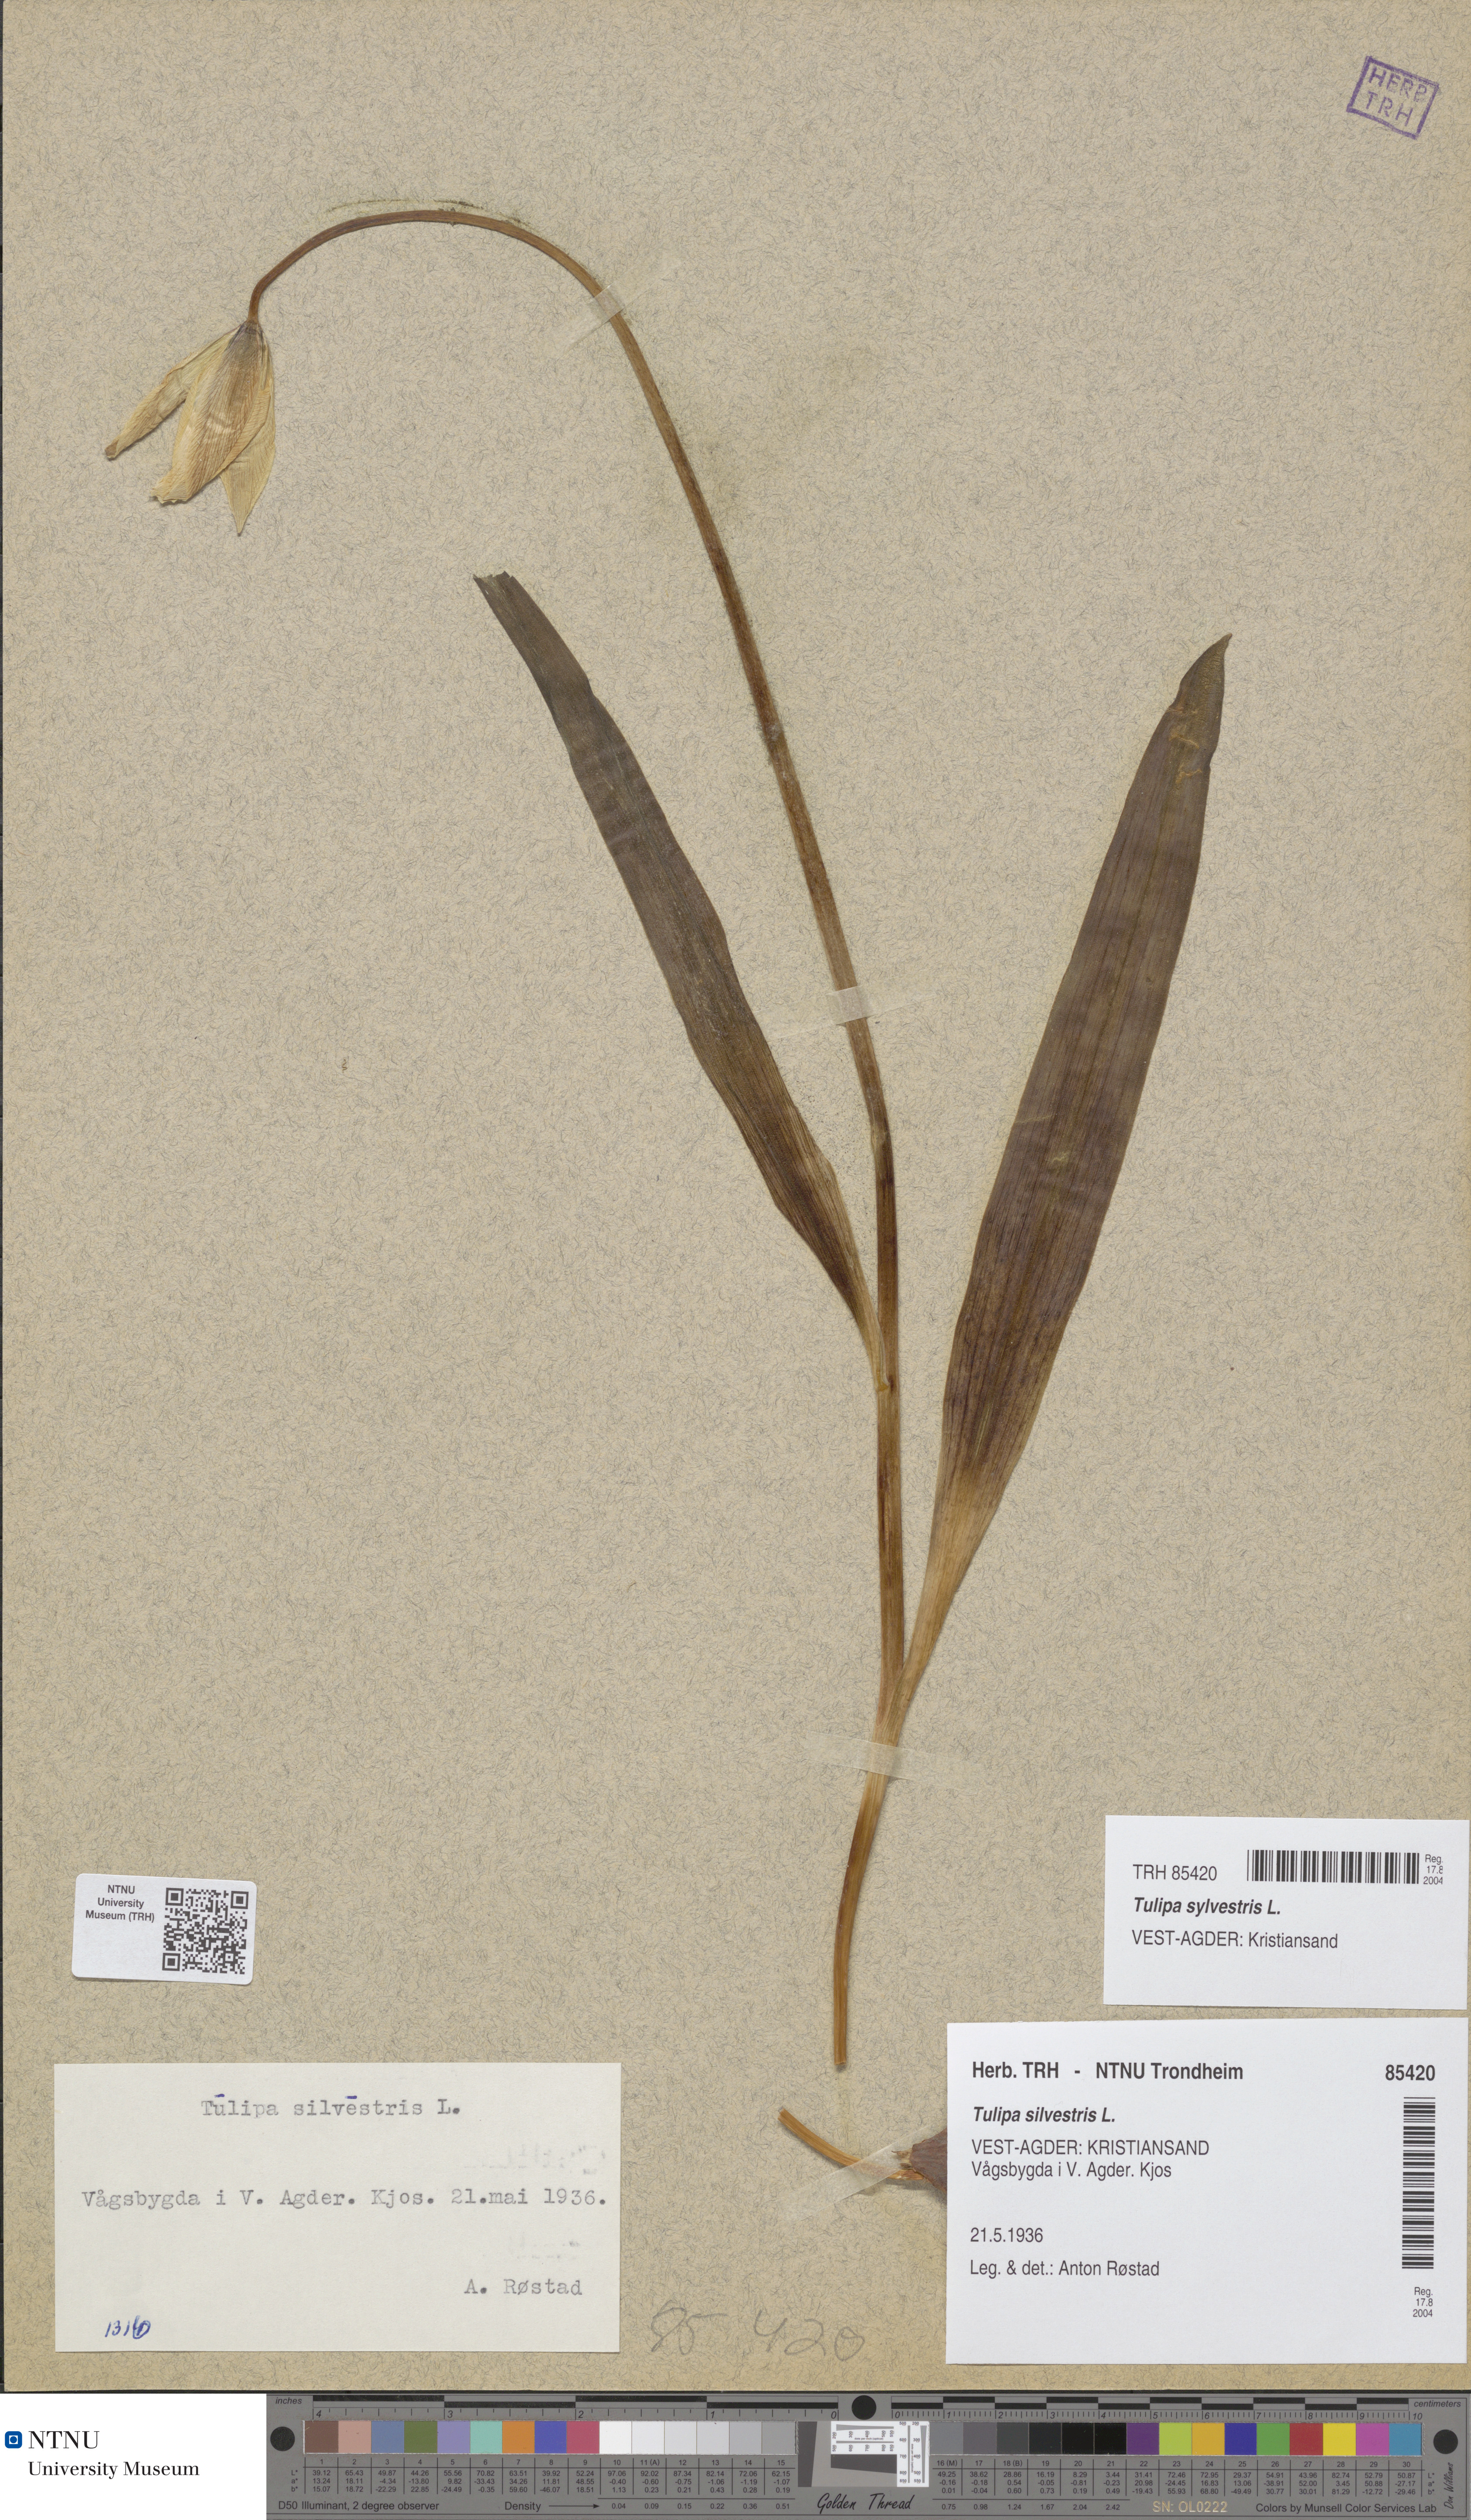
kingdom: Plantae
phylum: Tracheophyta
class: Liliopsida
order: Liliales
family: Liliaceae
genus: Tulipa
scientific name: Tulipa sylvestris
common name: Wild tulip
